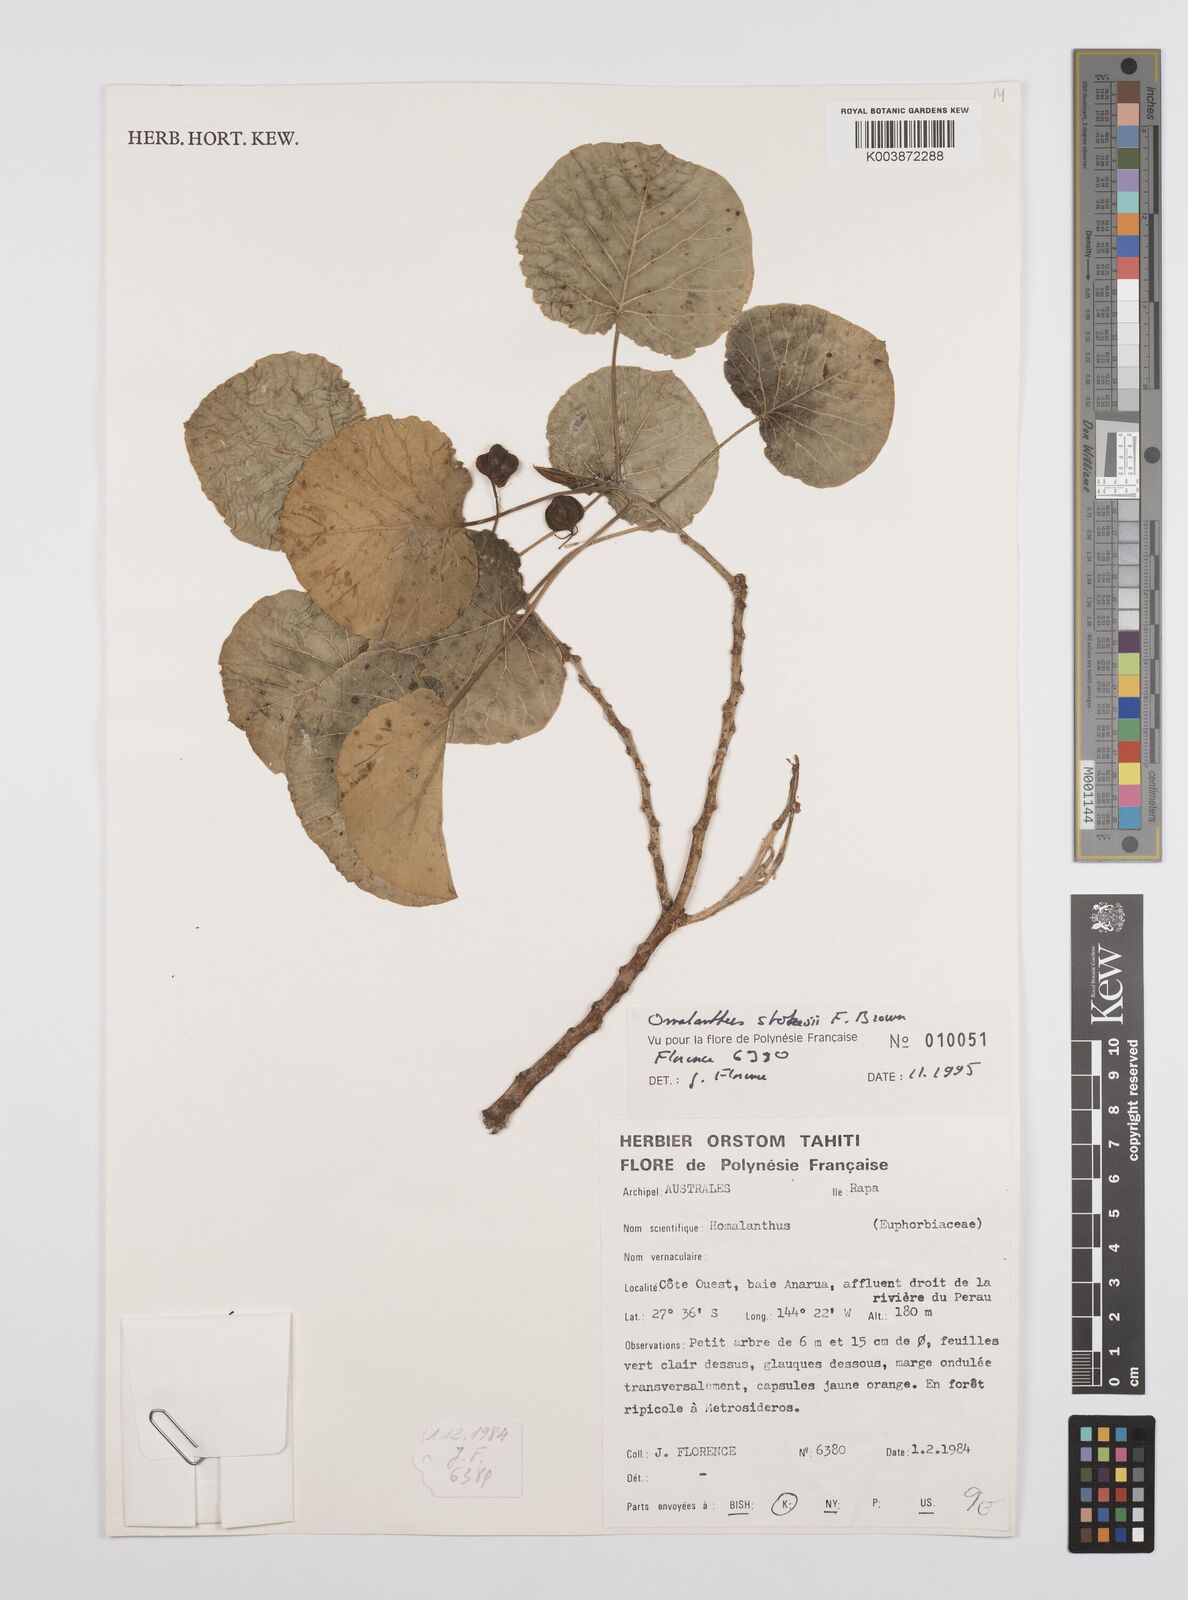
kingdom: Plantae
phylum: Tracheophyta
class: Magnoliopsida
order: Malpighiales
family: Euphorbiaceae
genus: Homalanthus
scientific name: Homalanthus stokesii
